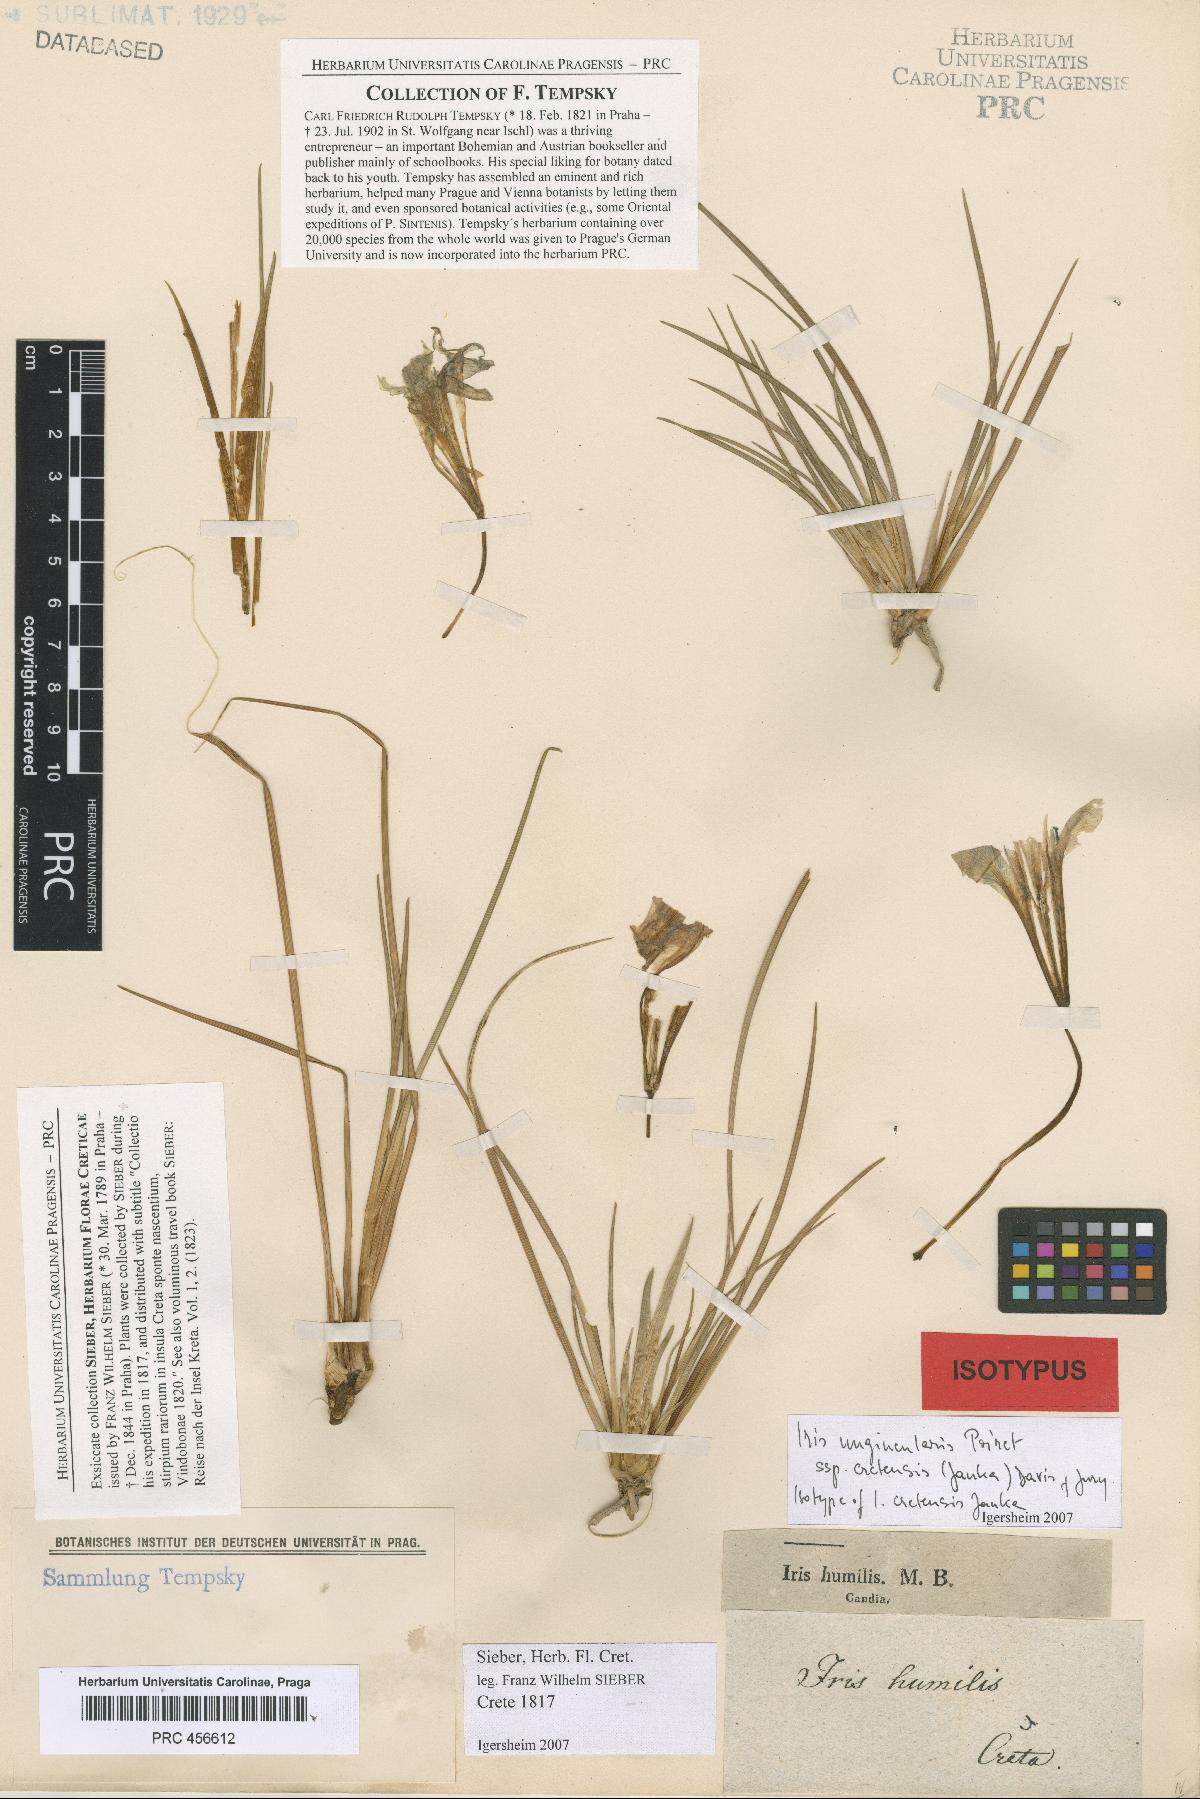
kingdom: Plantae
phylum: Tracheophyta
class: Liliopsida
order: Asparagales
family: Iridaceae
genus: Iris
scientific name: Iris unguicularis
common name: Algerian iris
